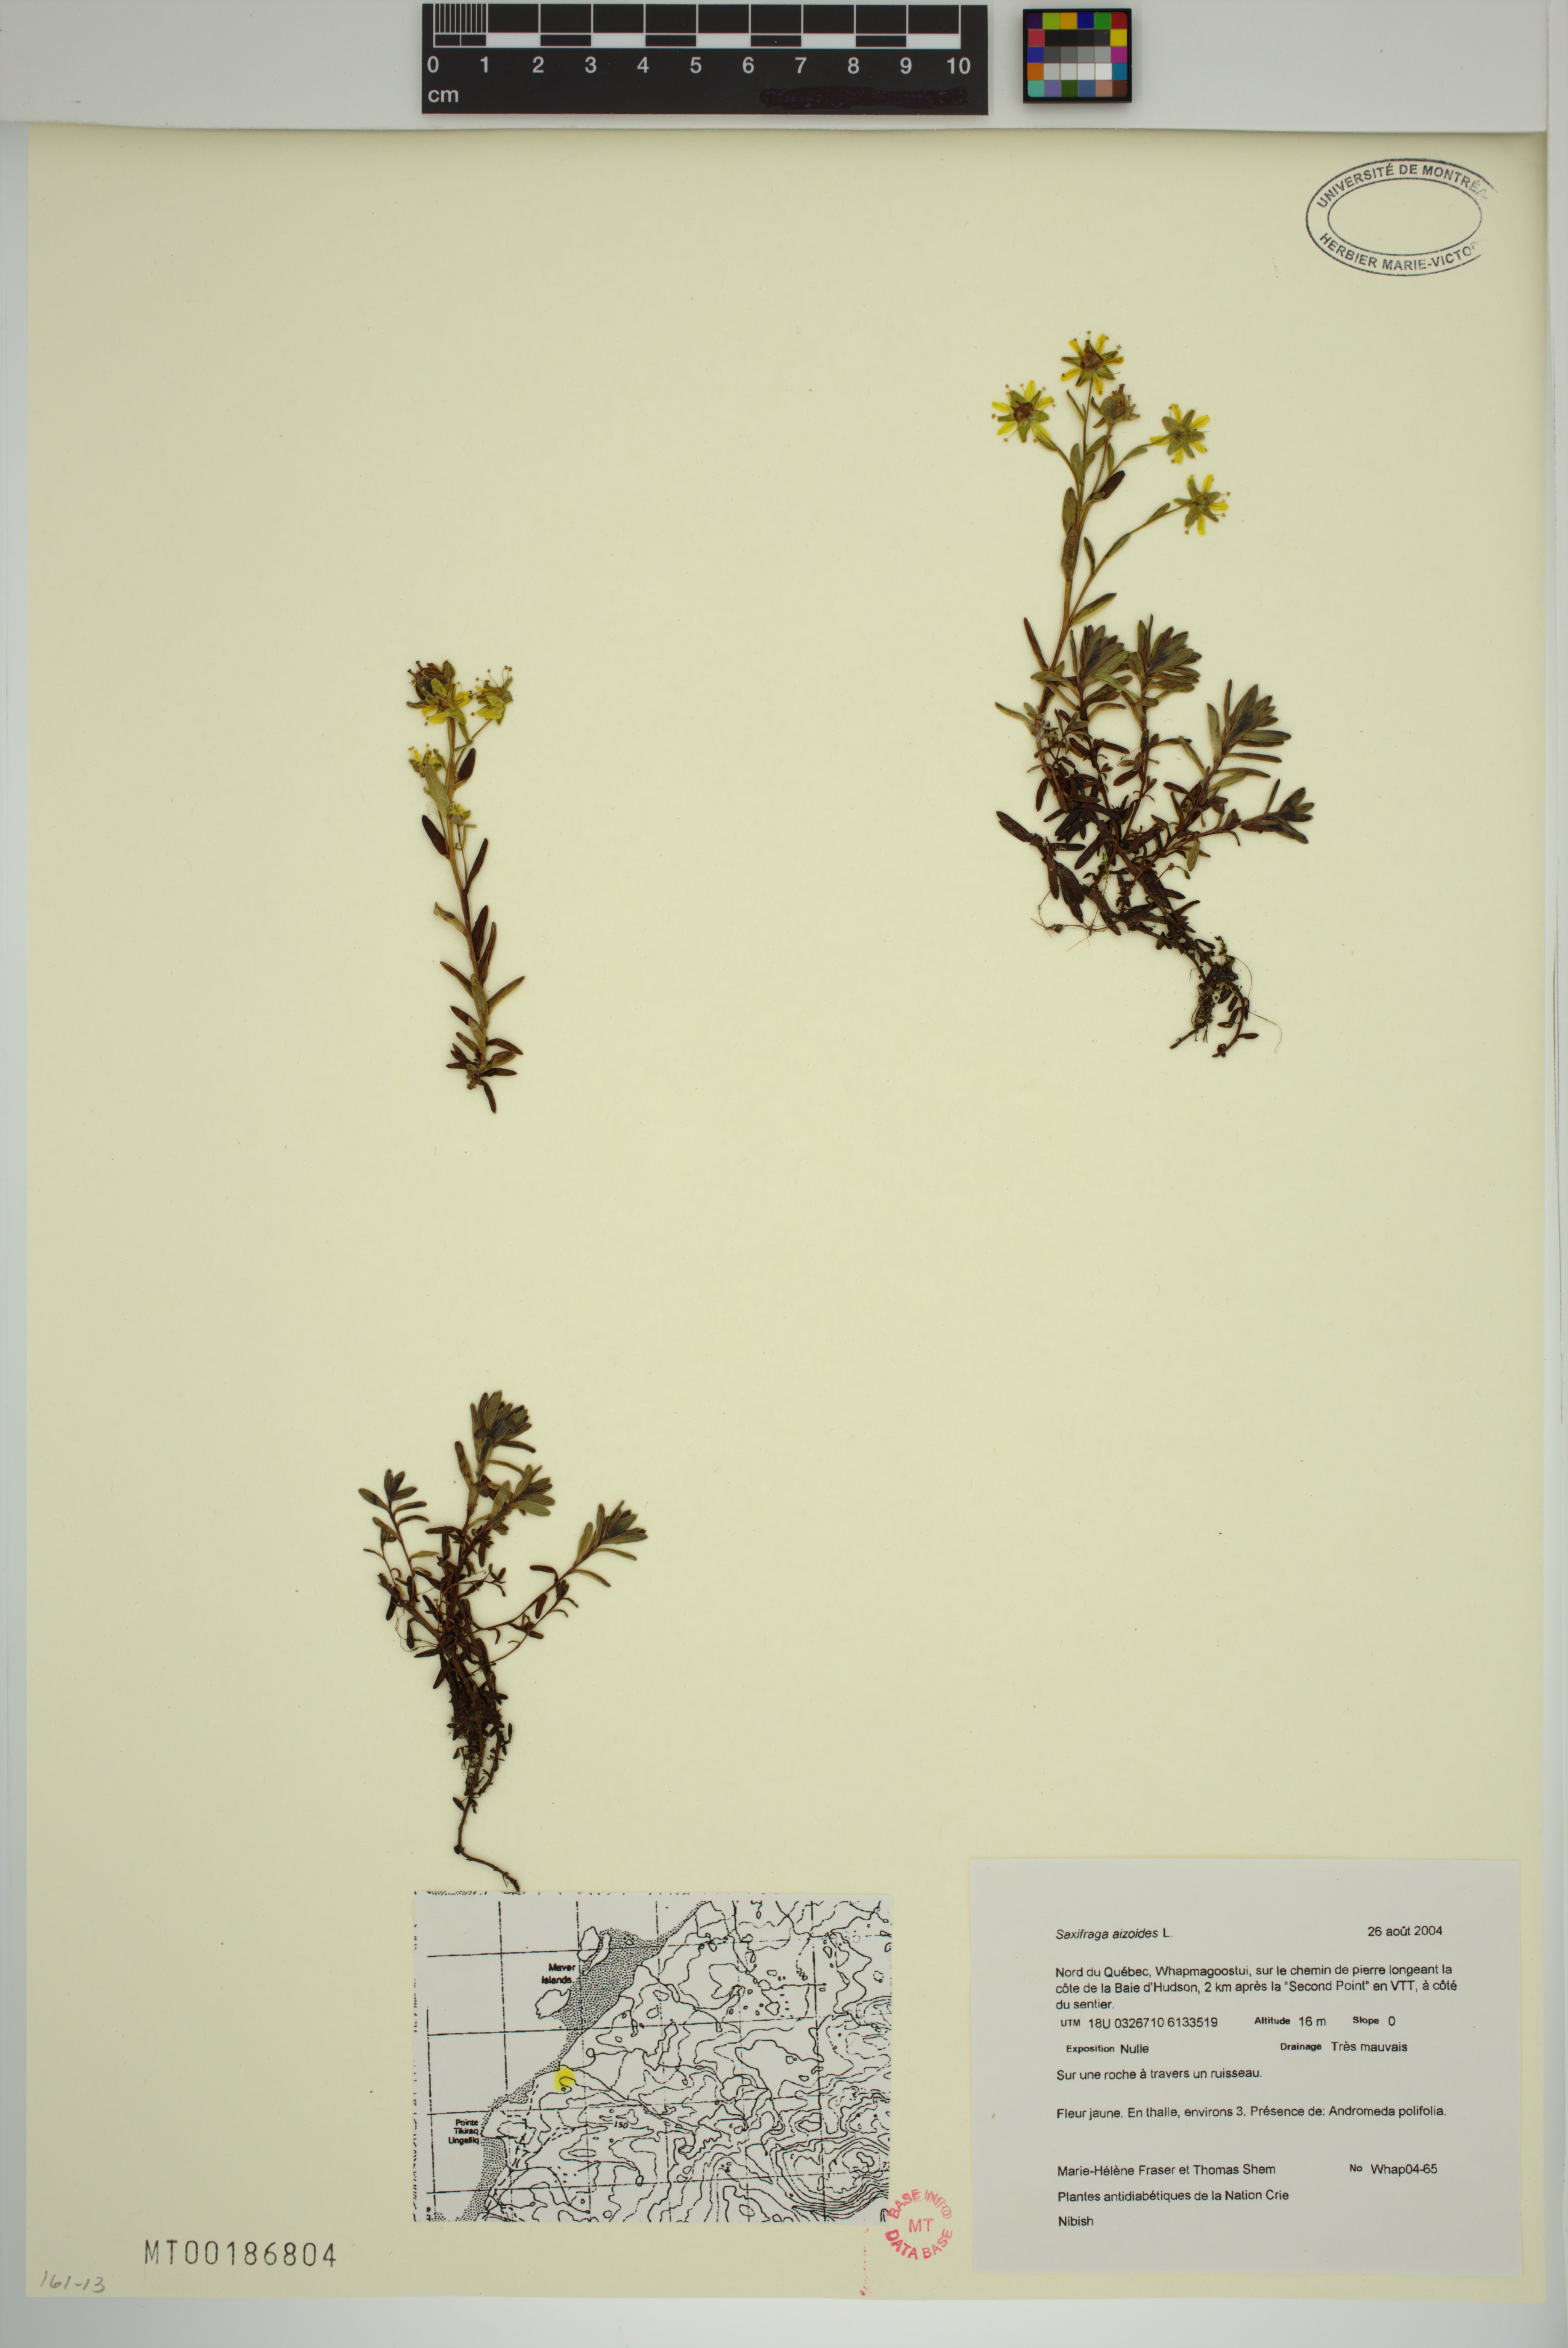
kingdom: Plantae
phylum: Tracheophyta
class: Magnoliopsida
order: Saxifragales
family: Saxifragaceae
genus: Saxifraga
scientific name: Saxifraga aizoides
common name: Yellow mountain saxifrage
